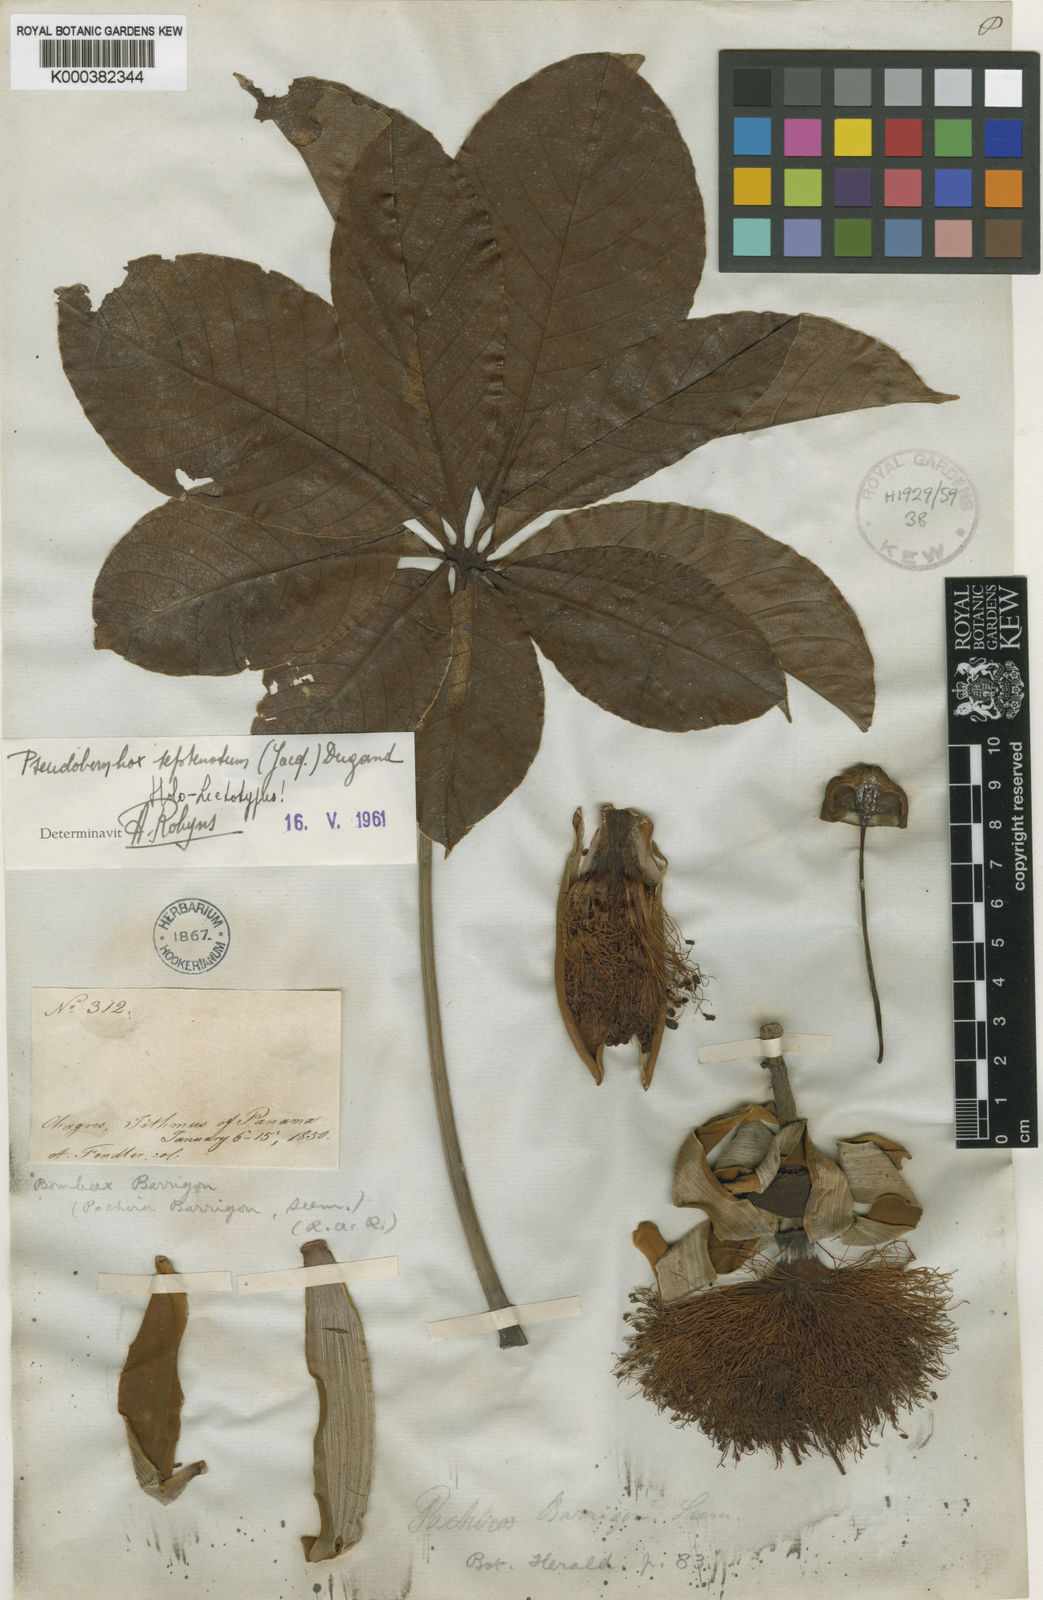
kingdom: Plantae
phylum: Tracheophyta
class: Magnoliopsida
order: Malvales
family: Malvaceae
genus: Pseudobombax
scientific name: Pseudobombax septenatum
